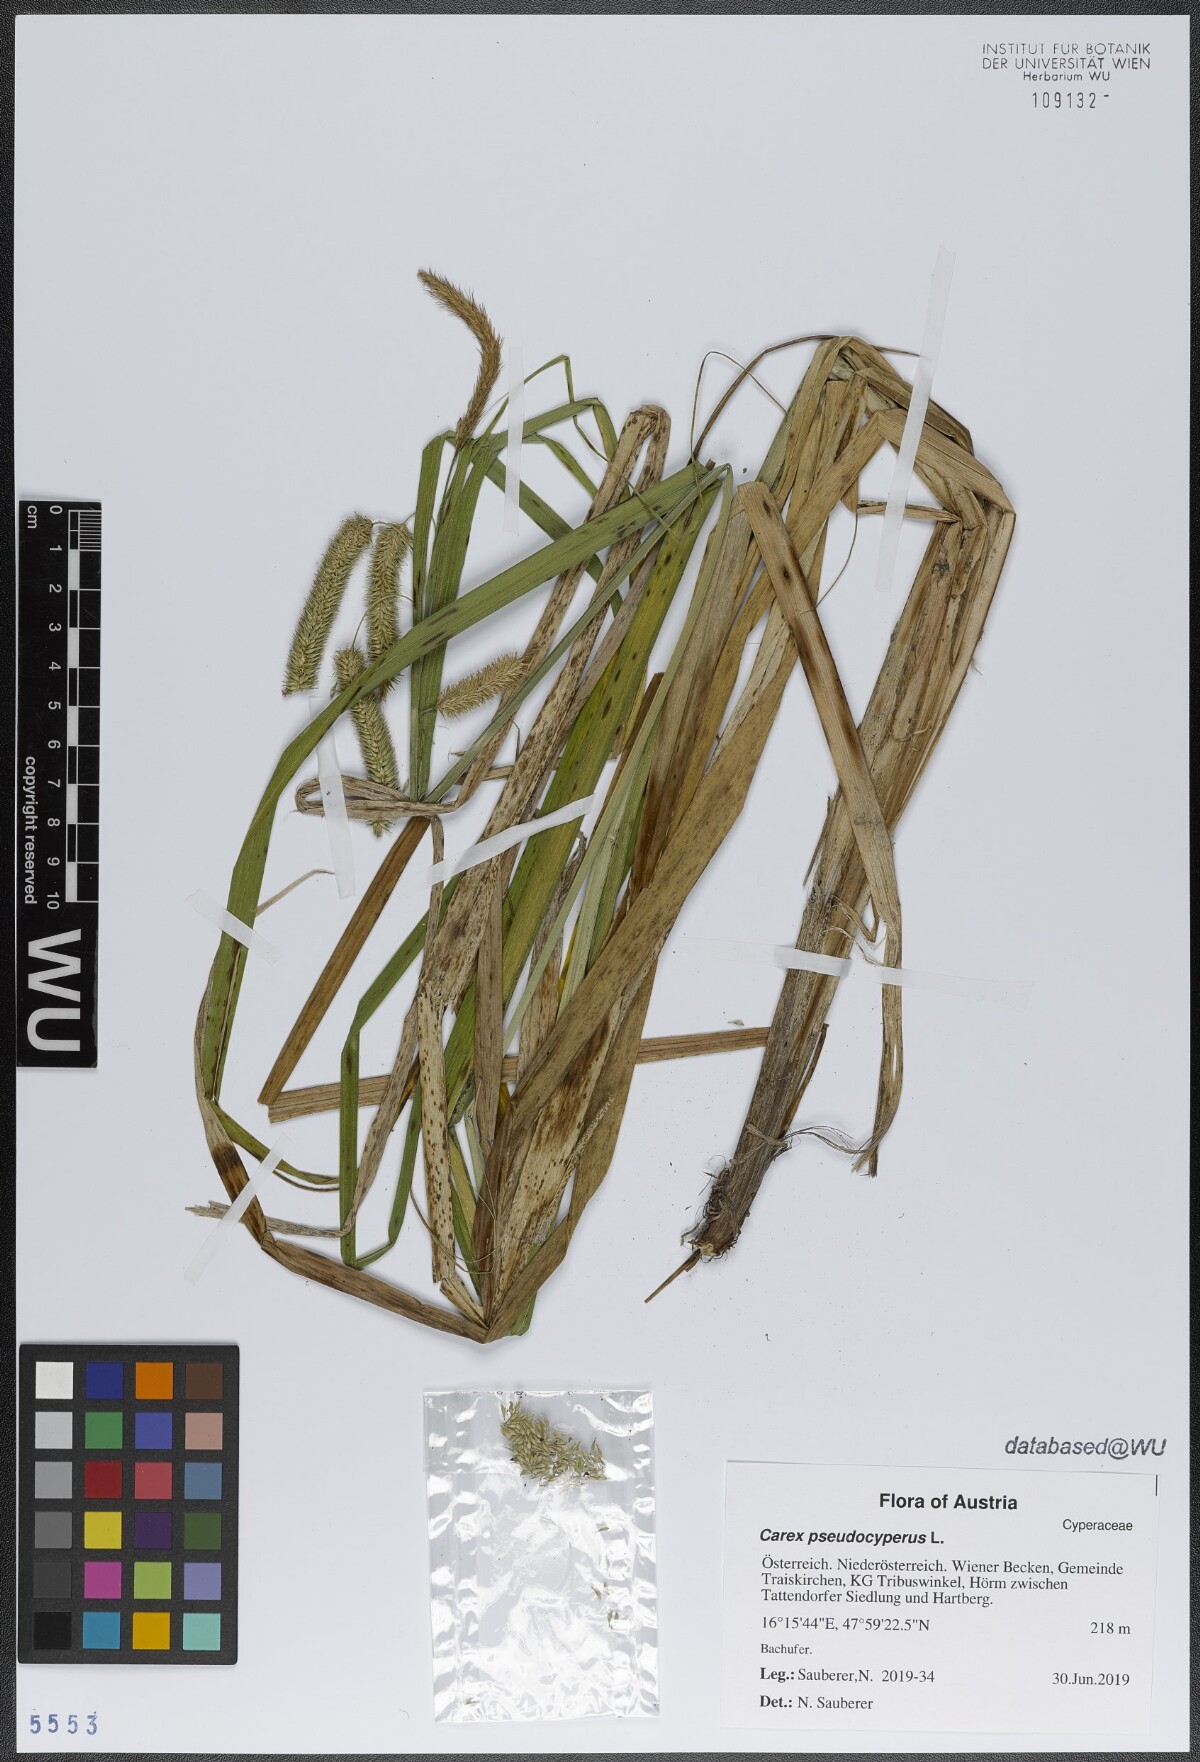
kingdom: Plantae
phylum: Tracheophyta
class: Liliopsida
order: Poales
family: Cyperaceae
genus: Carex
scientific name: Carex pseudocyperus
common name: Cyperus sedge
